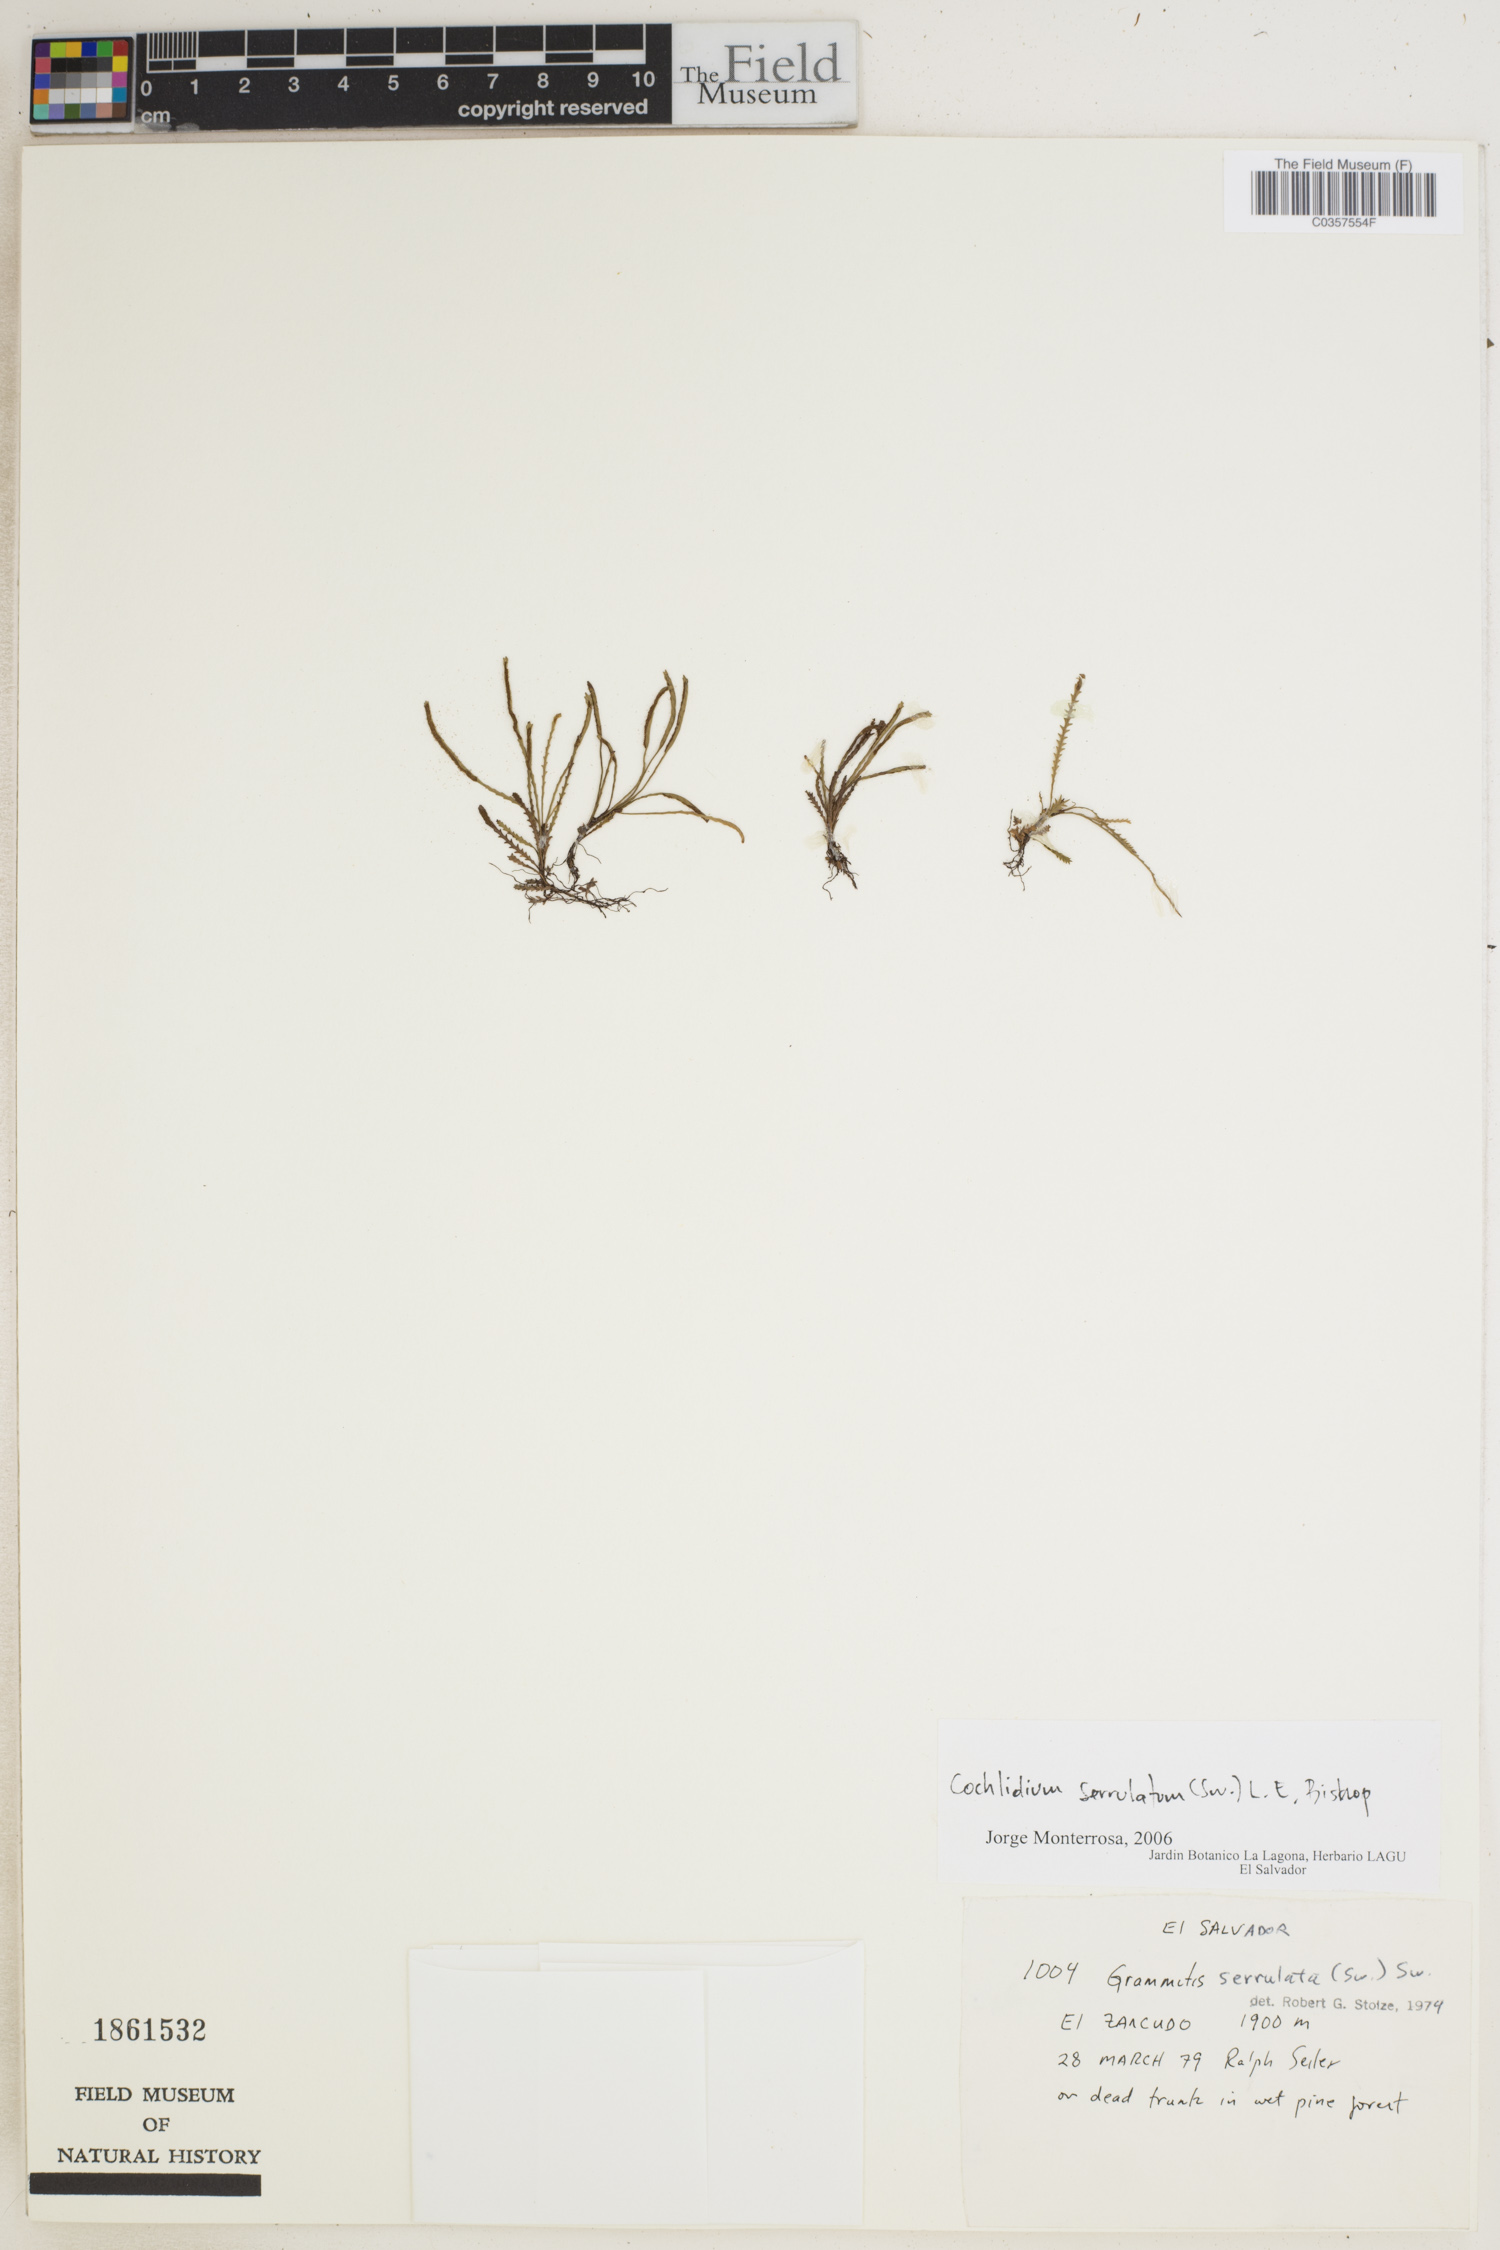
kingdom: Plantae
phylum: Tracheophyta
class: Polypodiopsida
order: Polypodiales
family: Polypodiaceae
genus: Cochlidium
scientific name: Cochlidium rostratum
